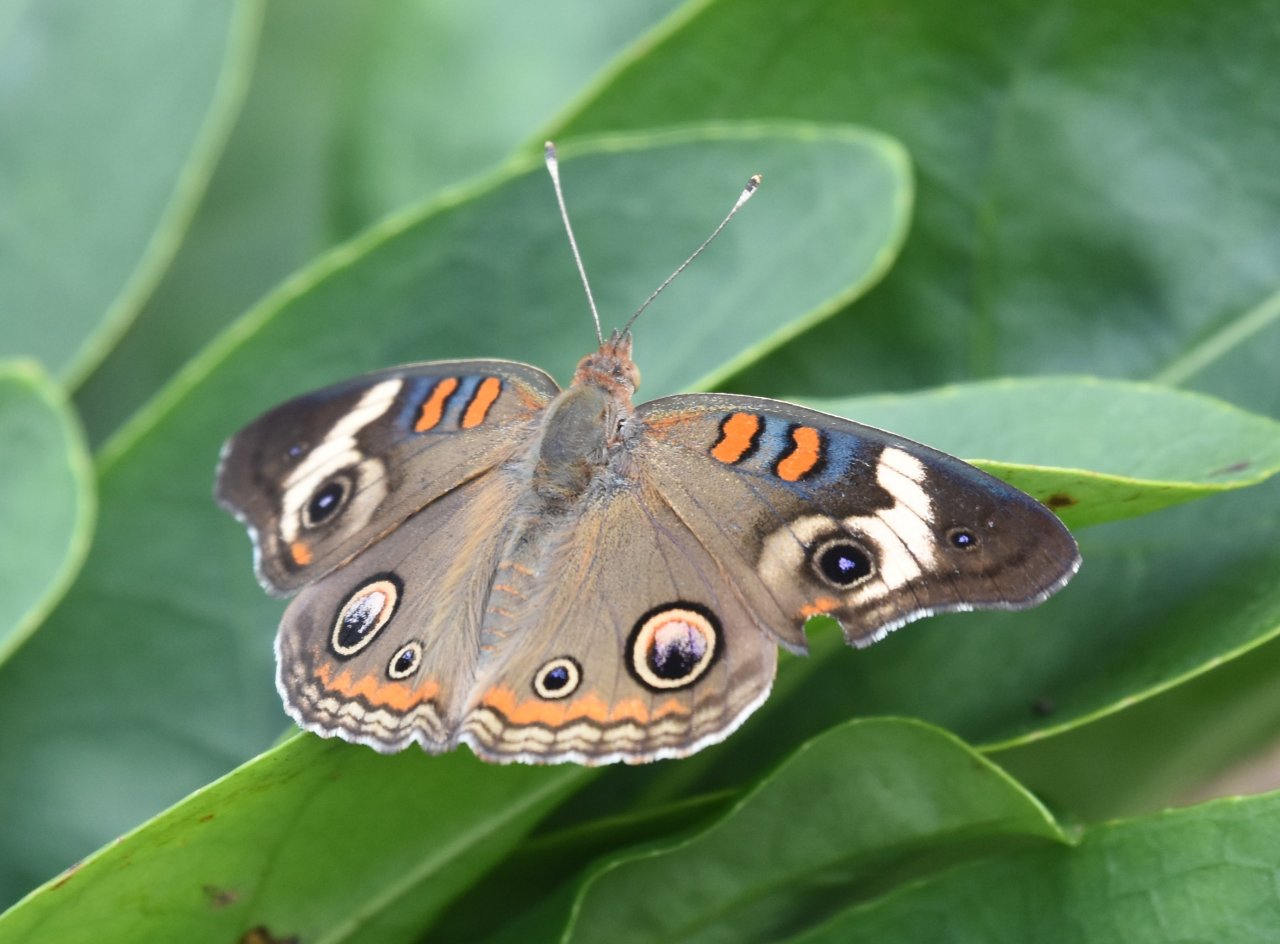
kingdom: Animalia
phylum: Arthropoda
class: Insecta
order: Lepidoptera
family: Nymphalidae
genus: Junonia
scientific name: Junonia coenia
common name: Common Buckeye
